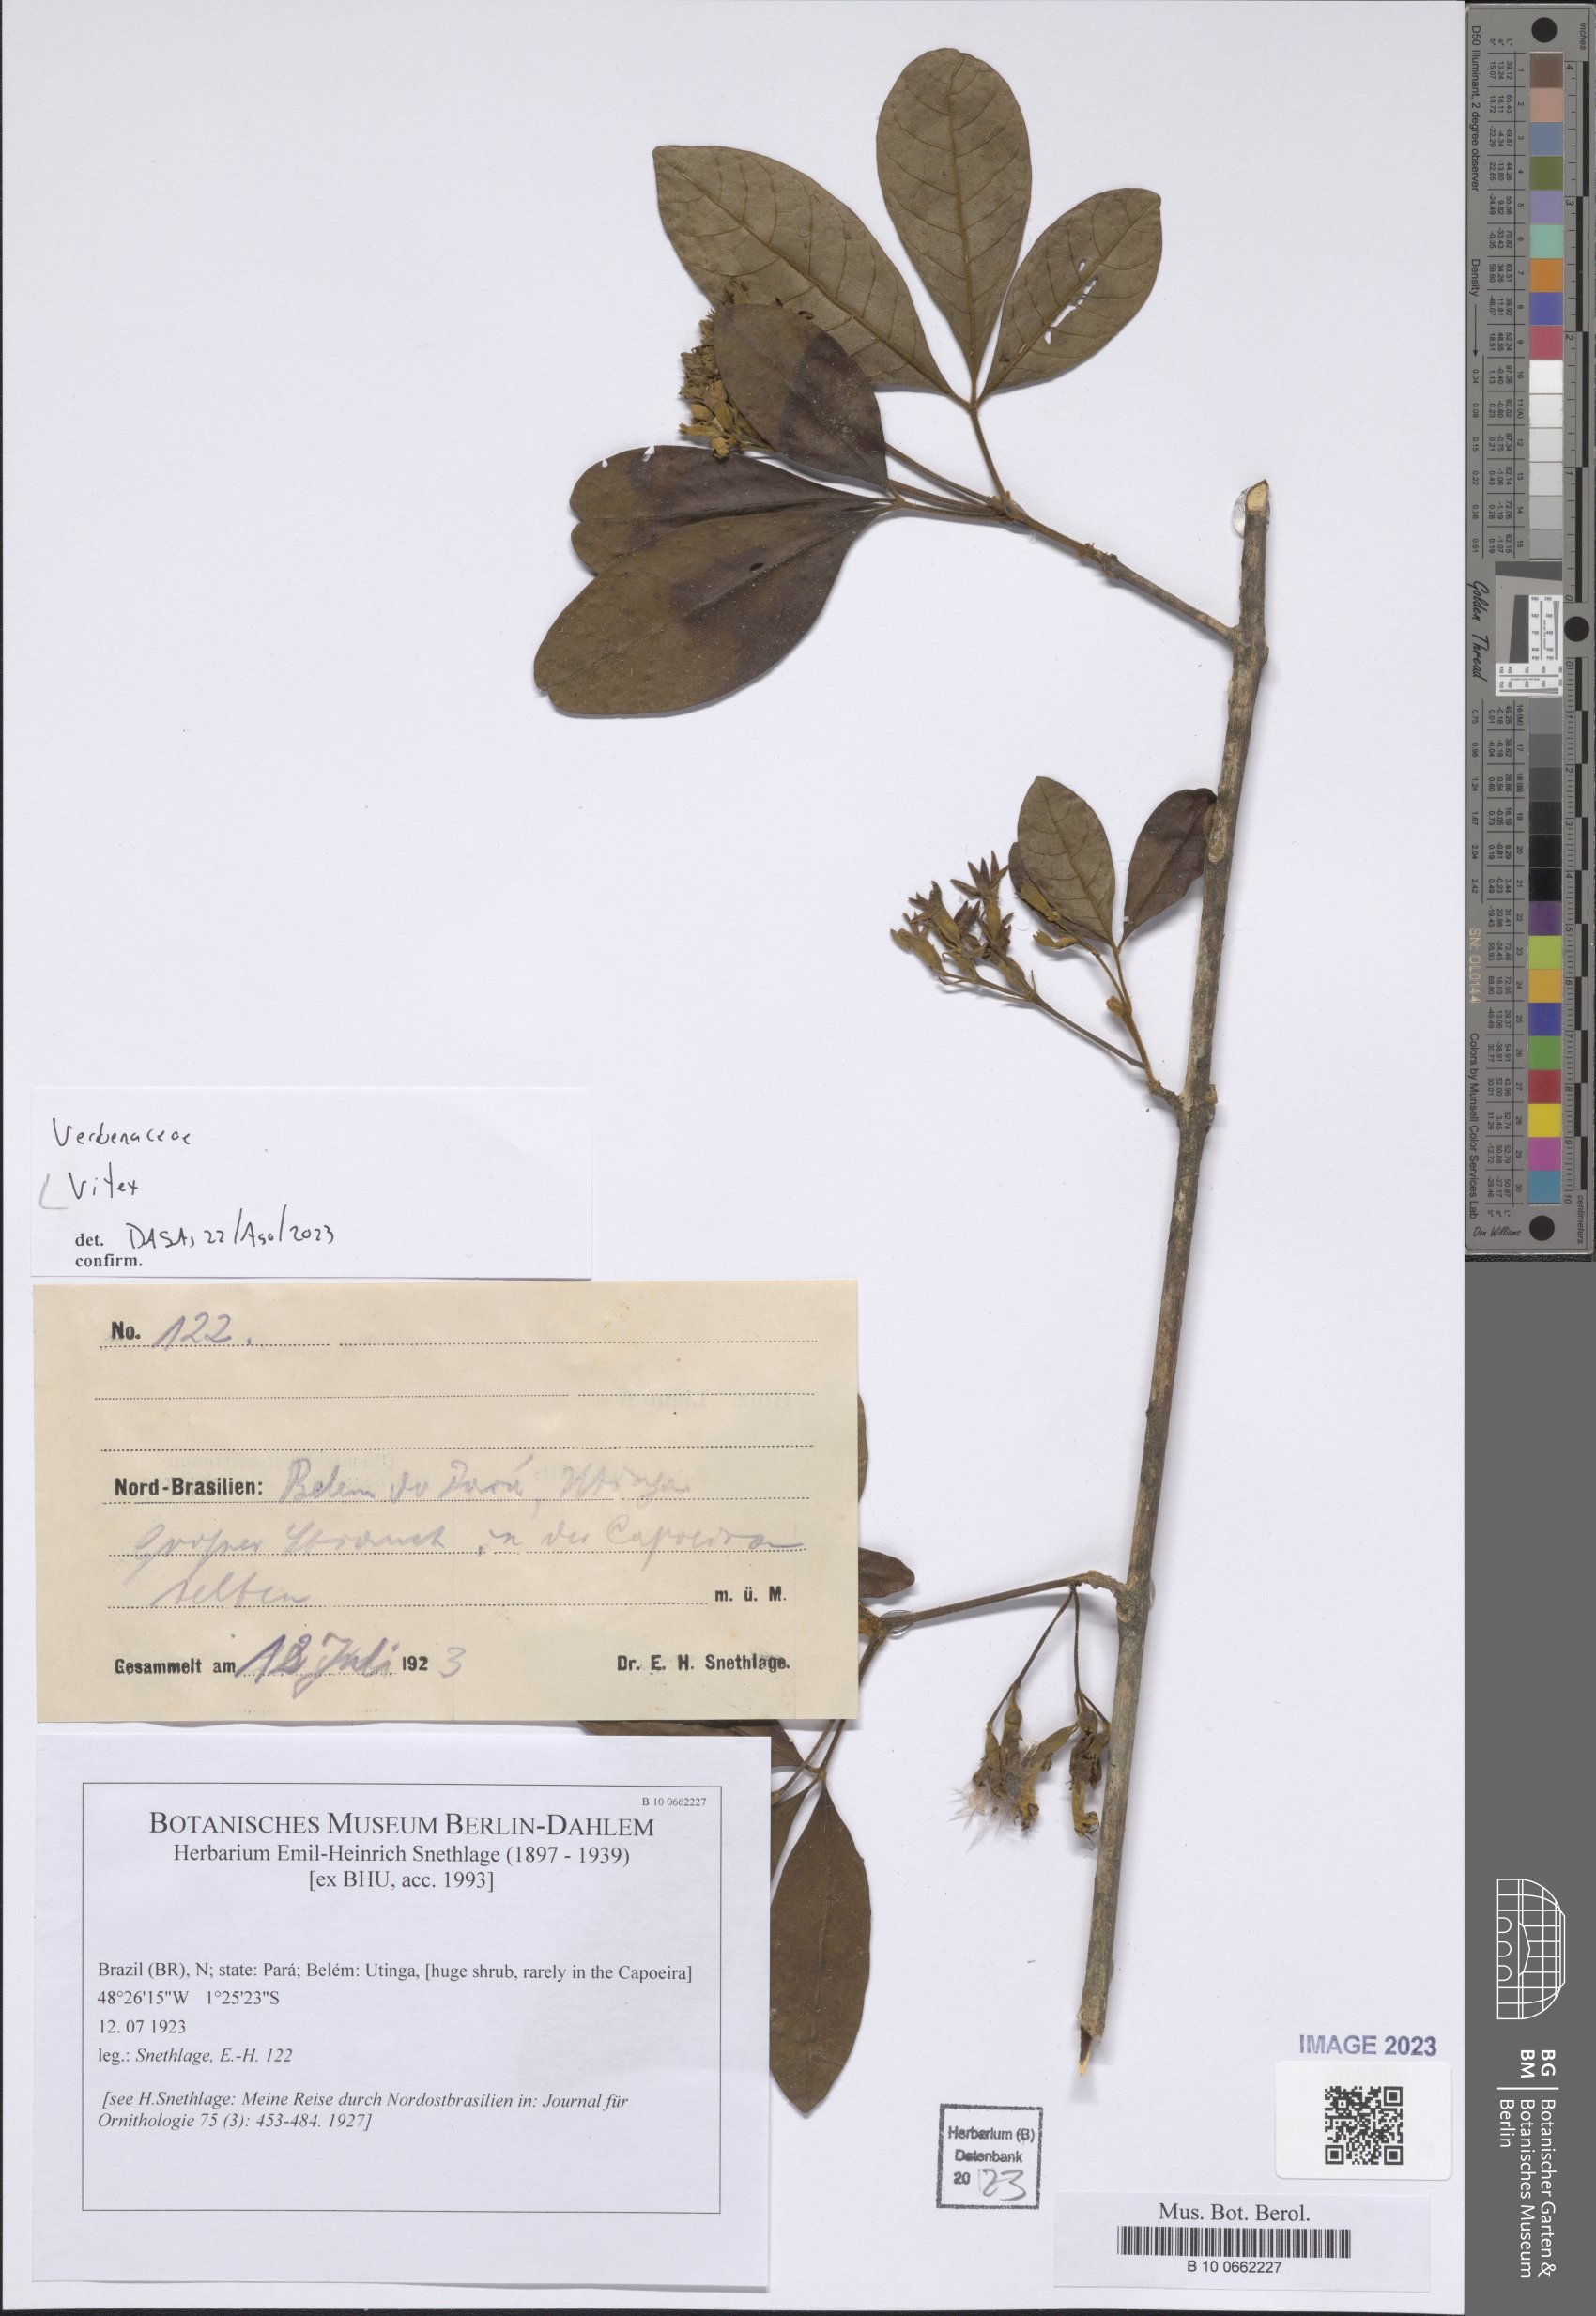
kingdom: Plantae
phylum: Tracheophyta
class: Magnoliopsida
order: Lamiales
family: Lamiaceae
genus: Vitex
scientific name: Vitex
